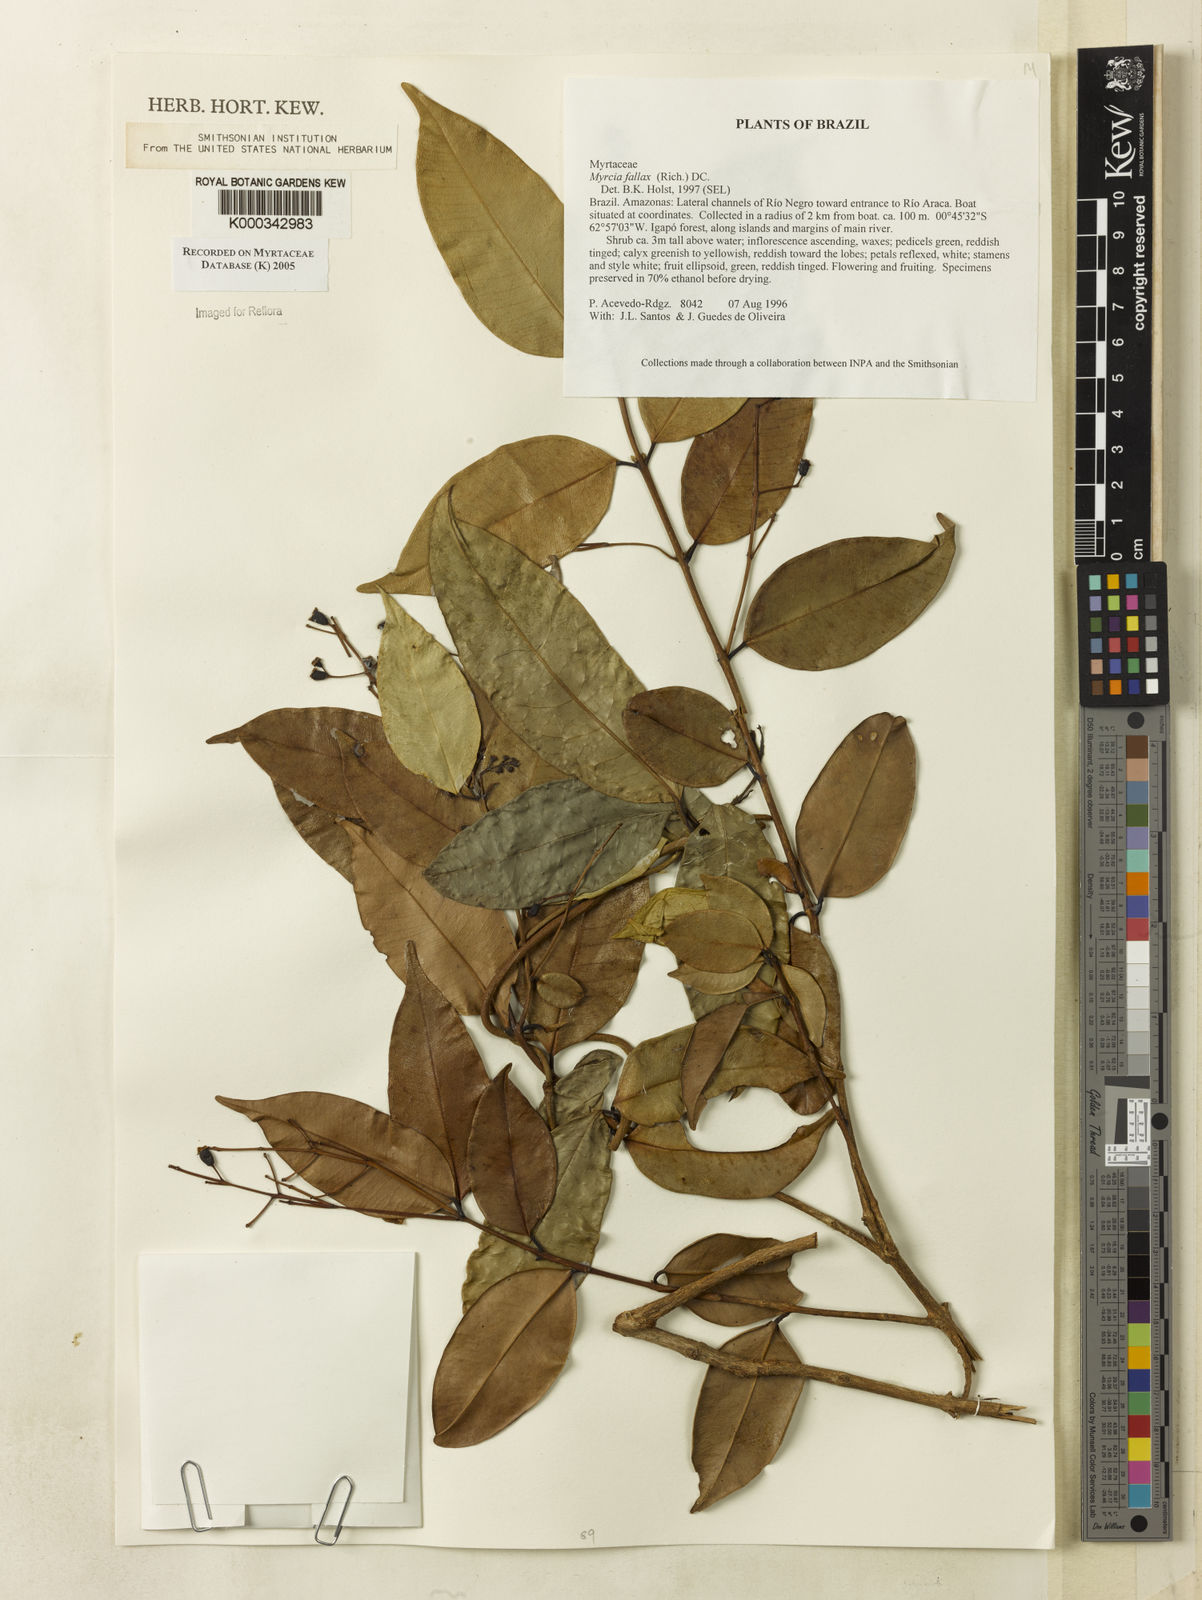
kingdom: Plantae
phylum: Tracheophyta
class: Magnoliopsida
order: Myrtales
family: Myrtaceae
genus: Myrcia
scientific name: Myrcia splendens
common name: Surinam cherry
